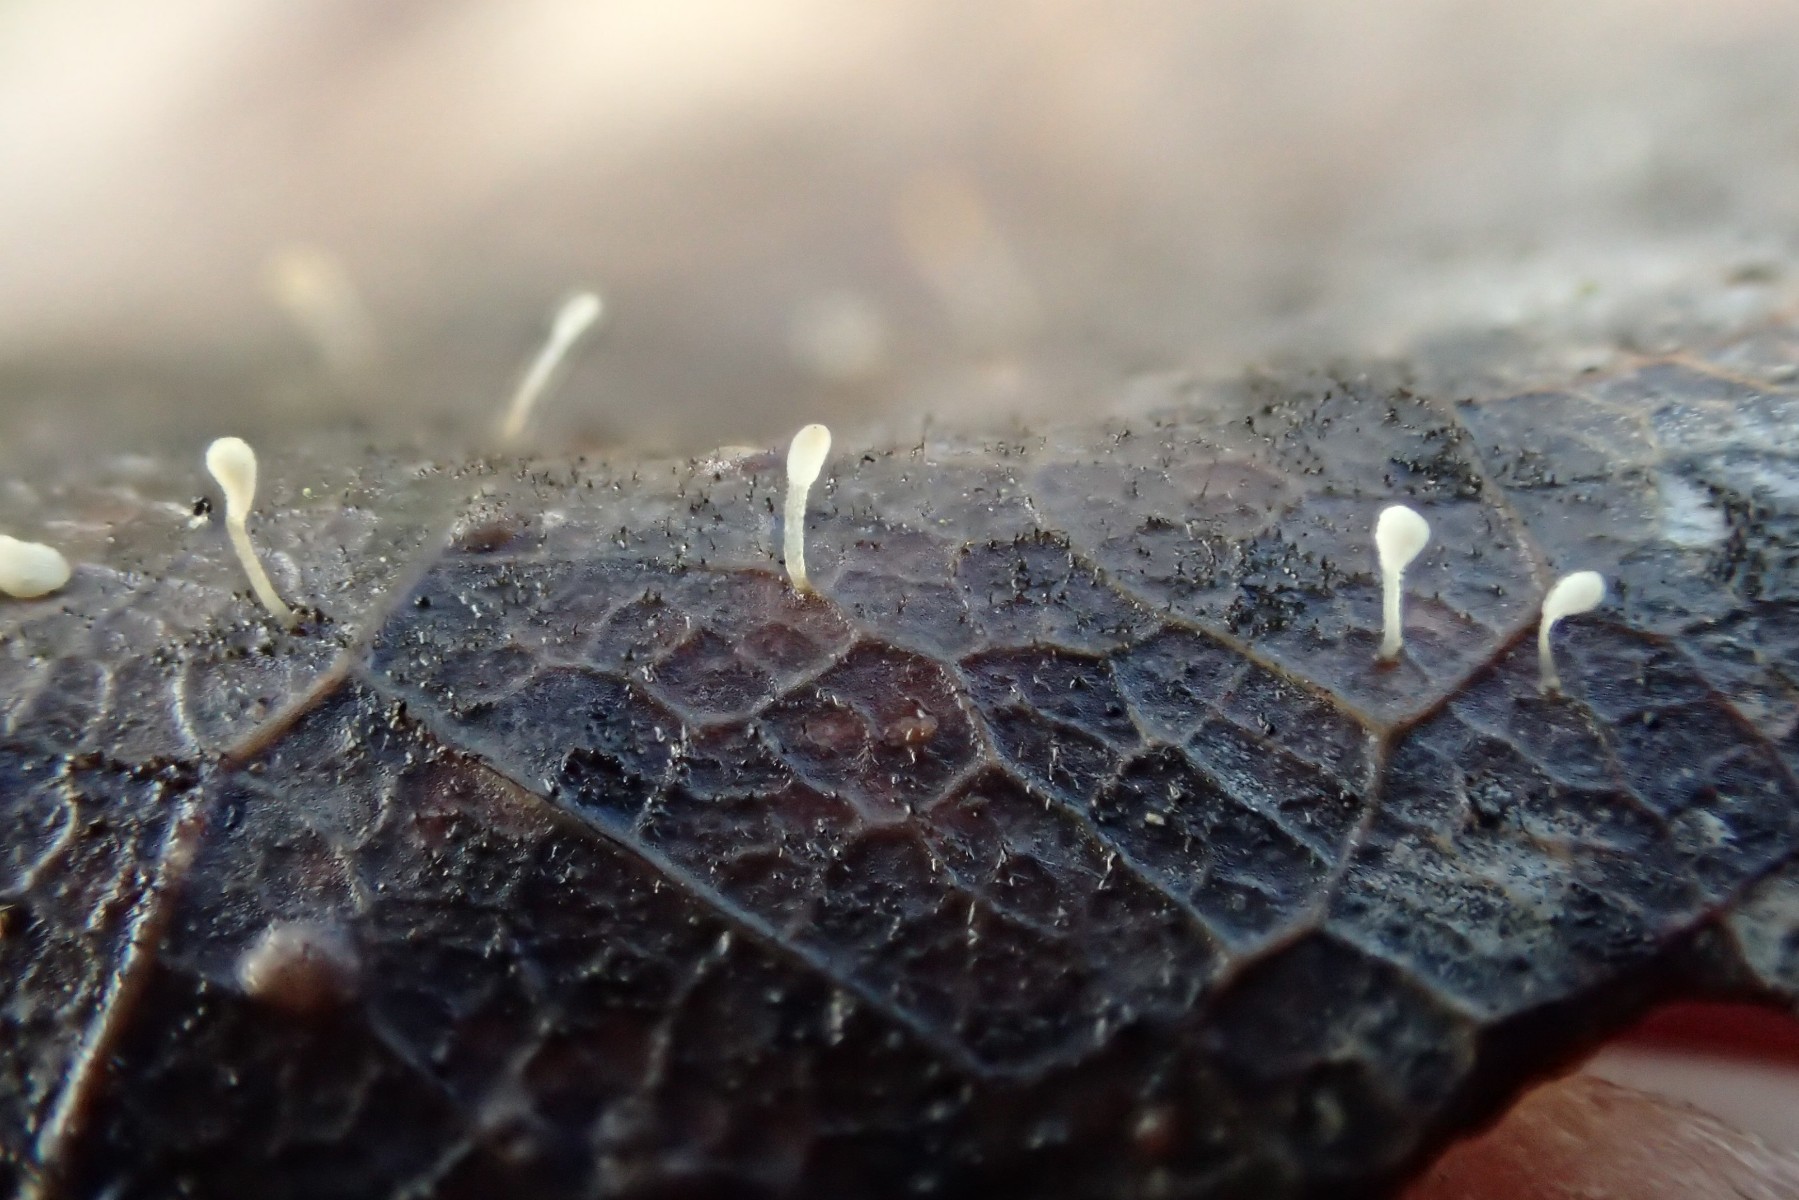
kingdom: Fungi
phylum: Basidiomycota
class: Agaricomycetes
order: Agaricales
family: Typhulaceae
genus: Typhula
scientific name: Typhula setipes
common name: liden trådkølle
